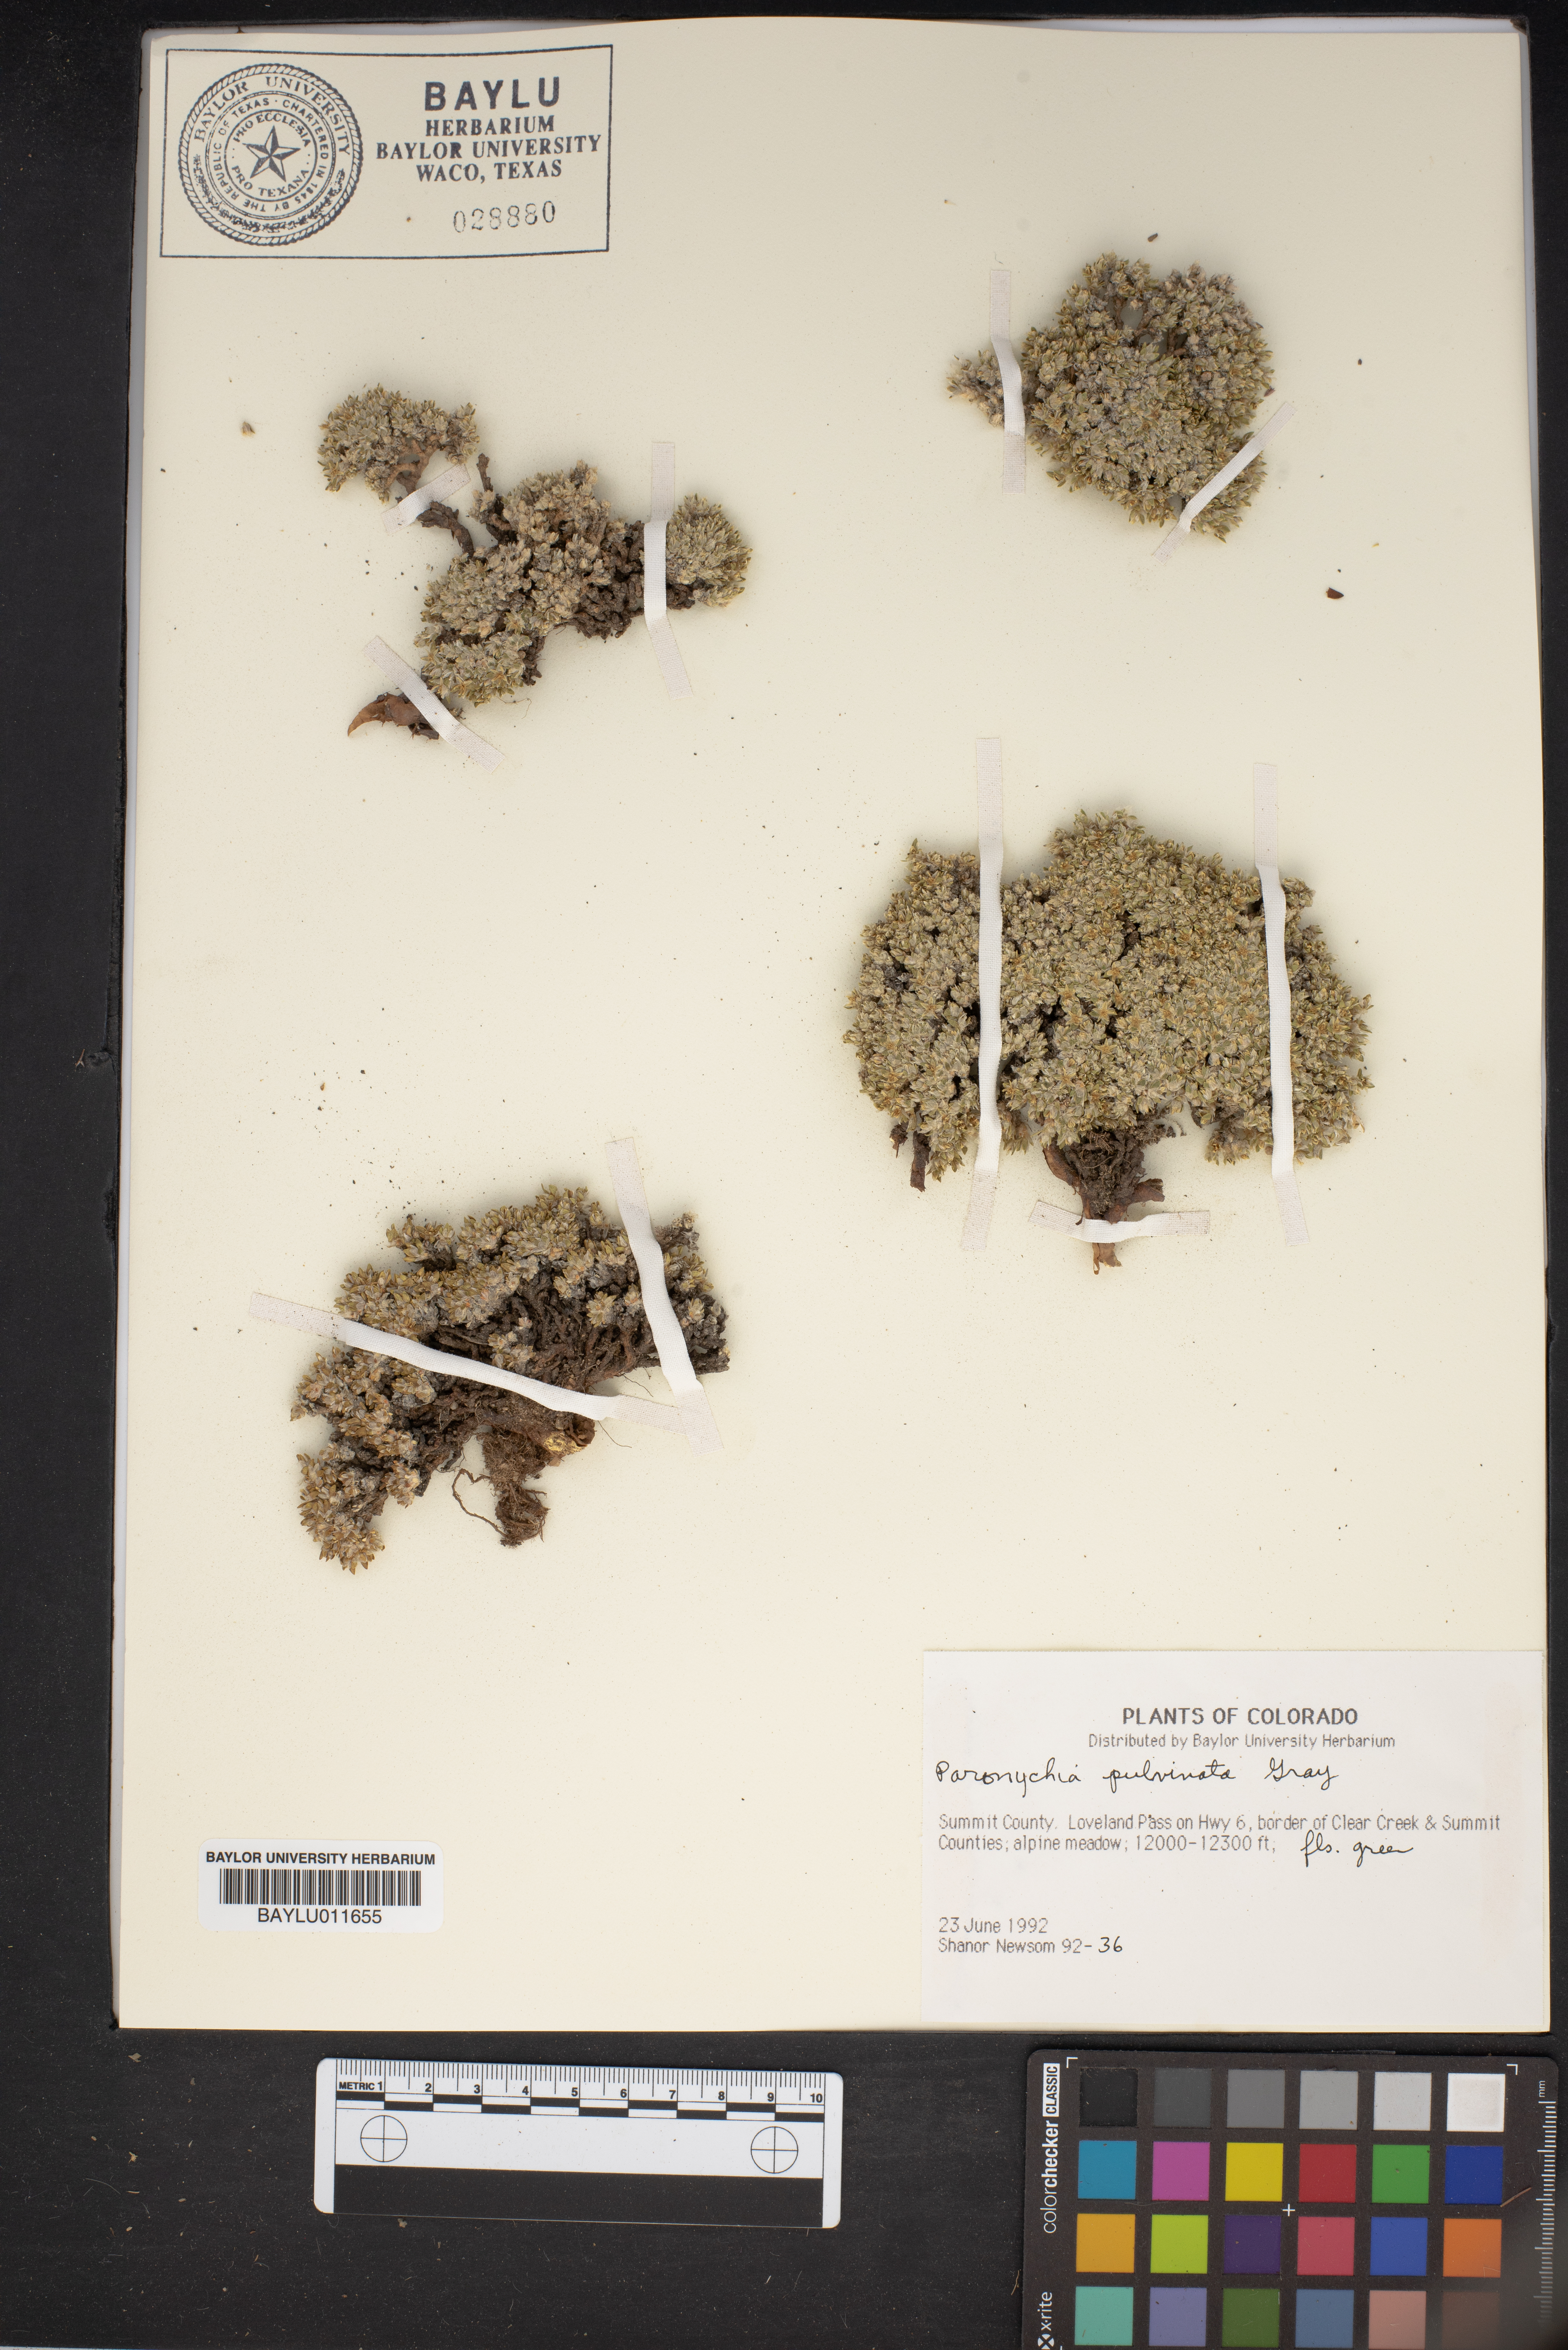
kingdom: Plantae
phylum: Tracheophyta
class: Magnoliopsida
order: Caryophyllales
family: Caryophyllaceae
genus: Paronychia
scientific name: Paronychia pulvinata
